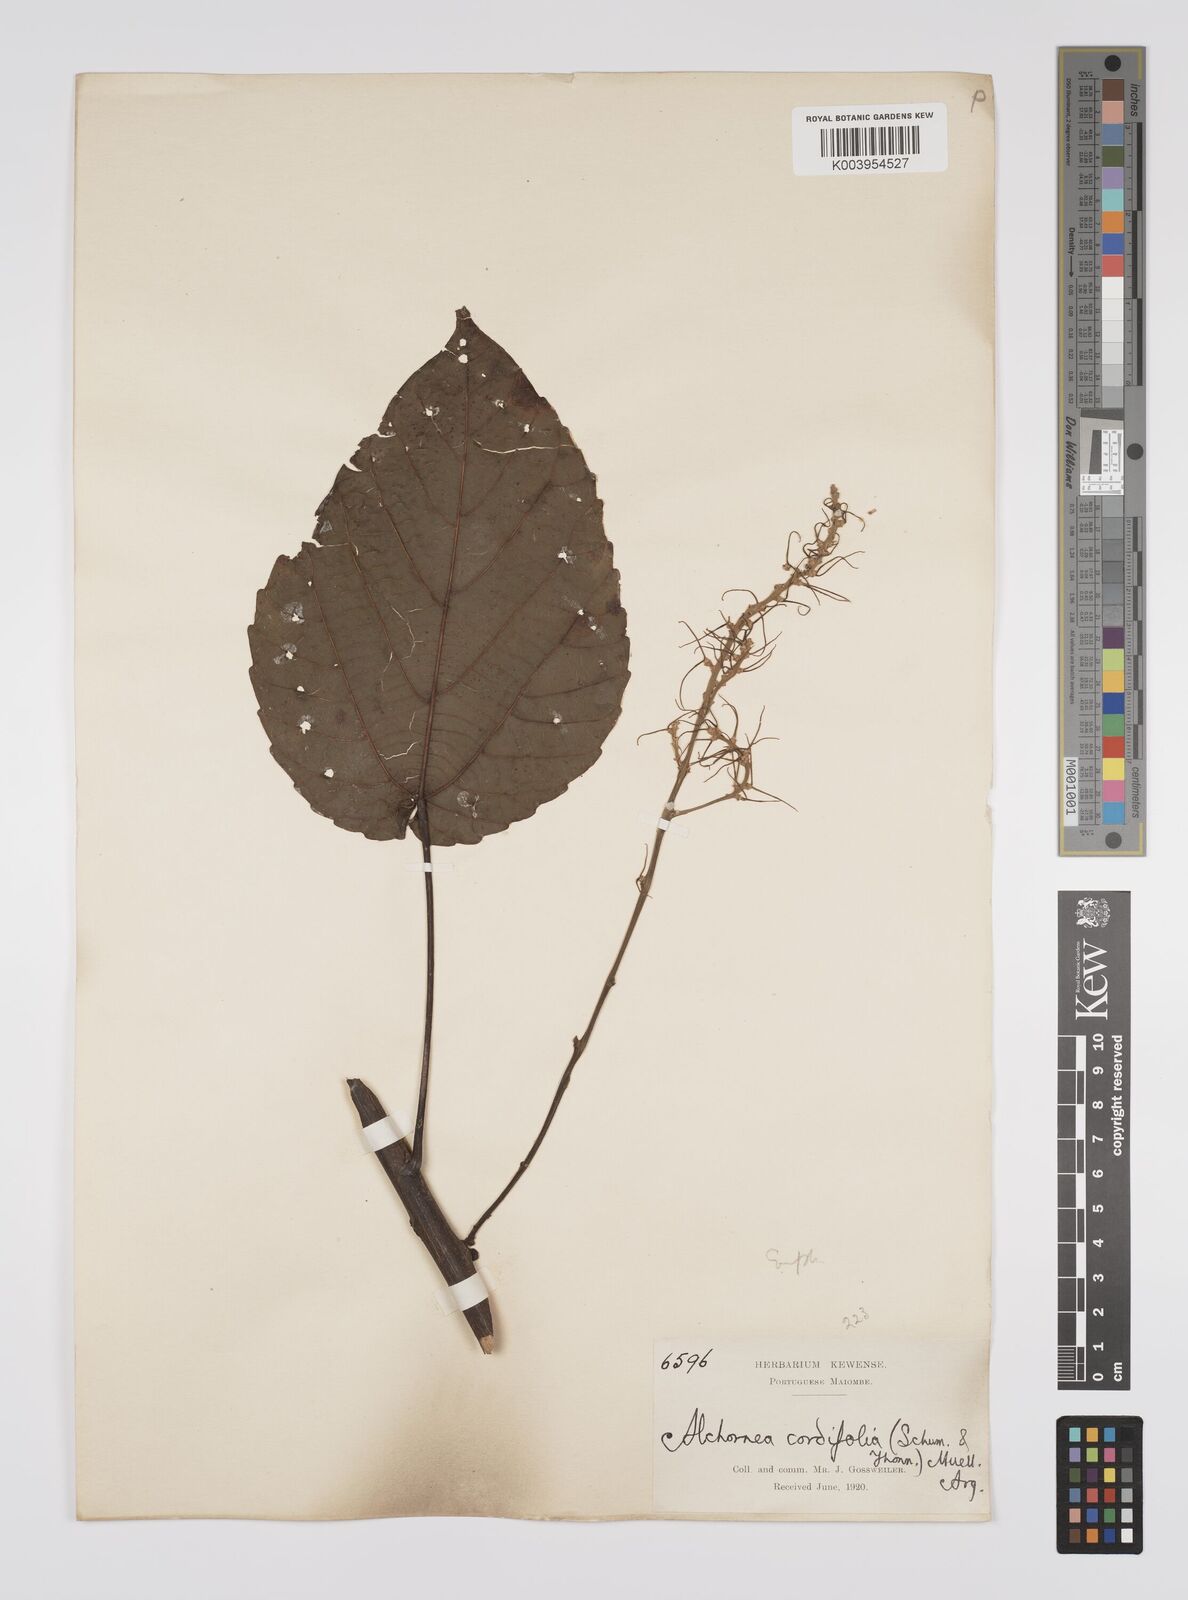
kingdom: Plantae
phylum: Tracheophyta
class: Magnoliopsida
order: Malpighiales
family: Euphorbiaceae
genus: Alchornea
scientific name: Alchornea cordifolia
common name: Christmasbush
